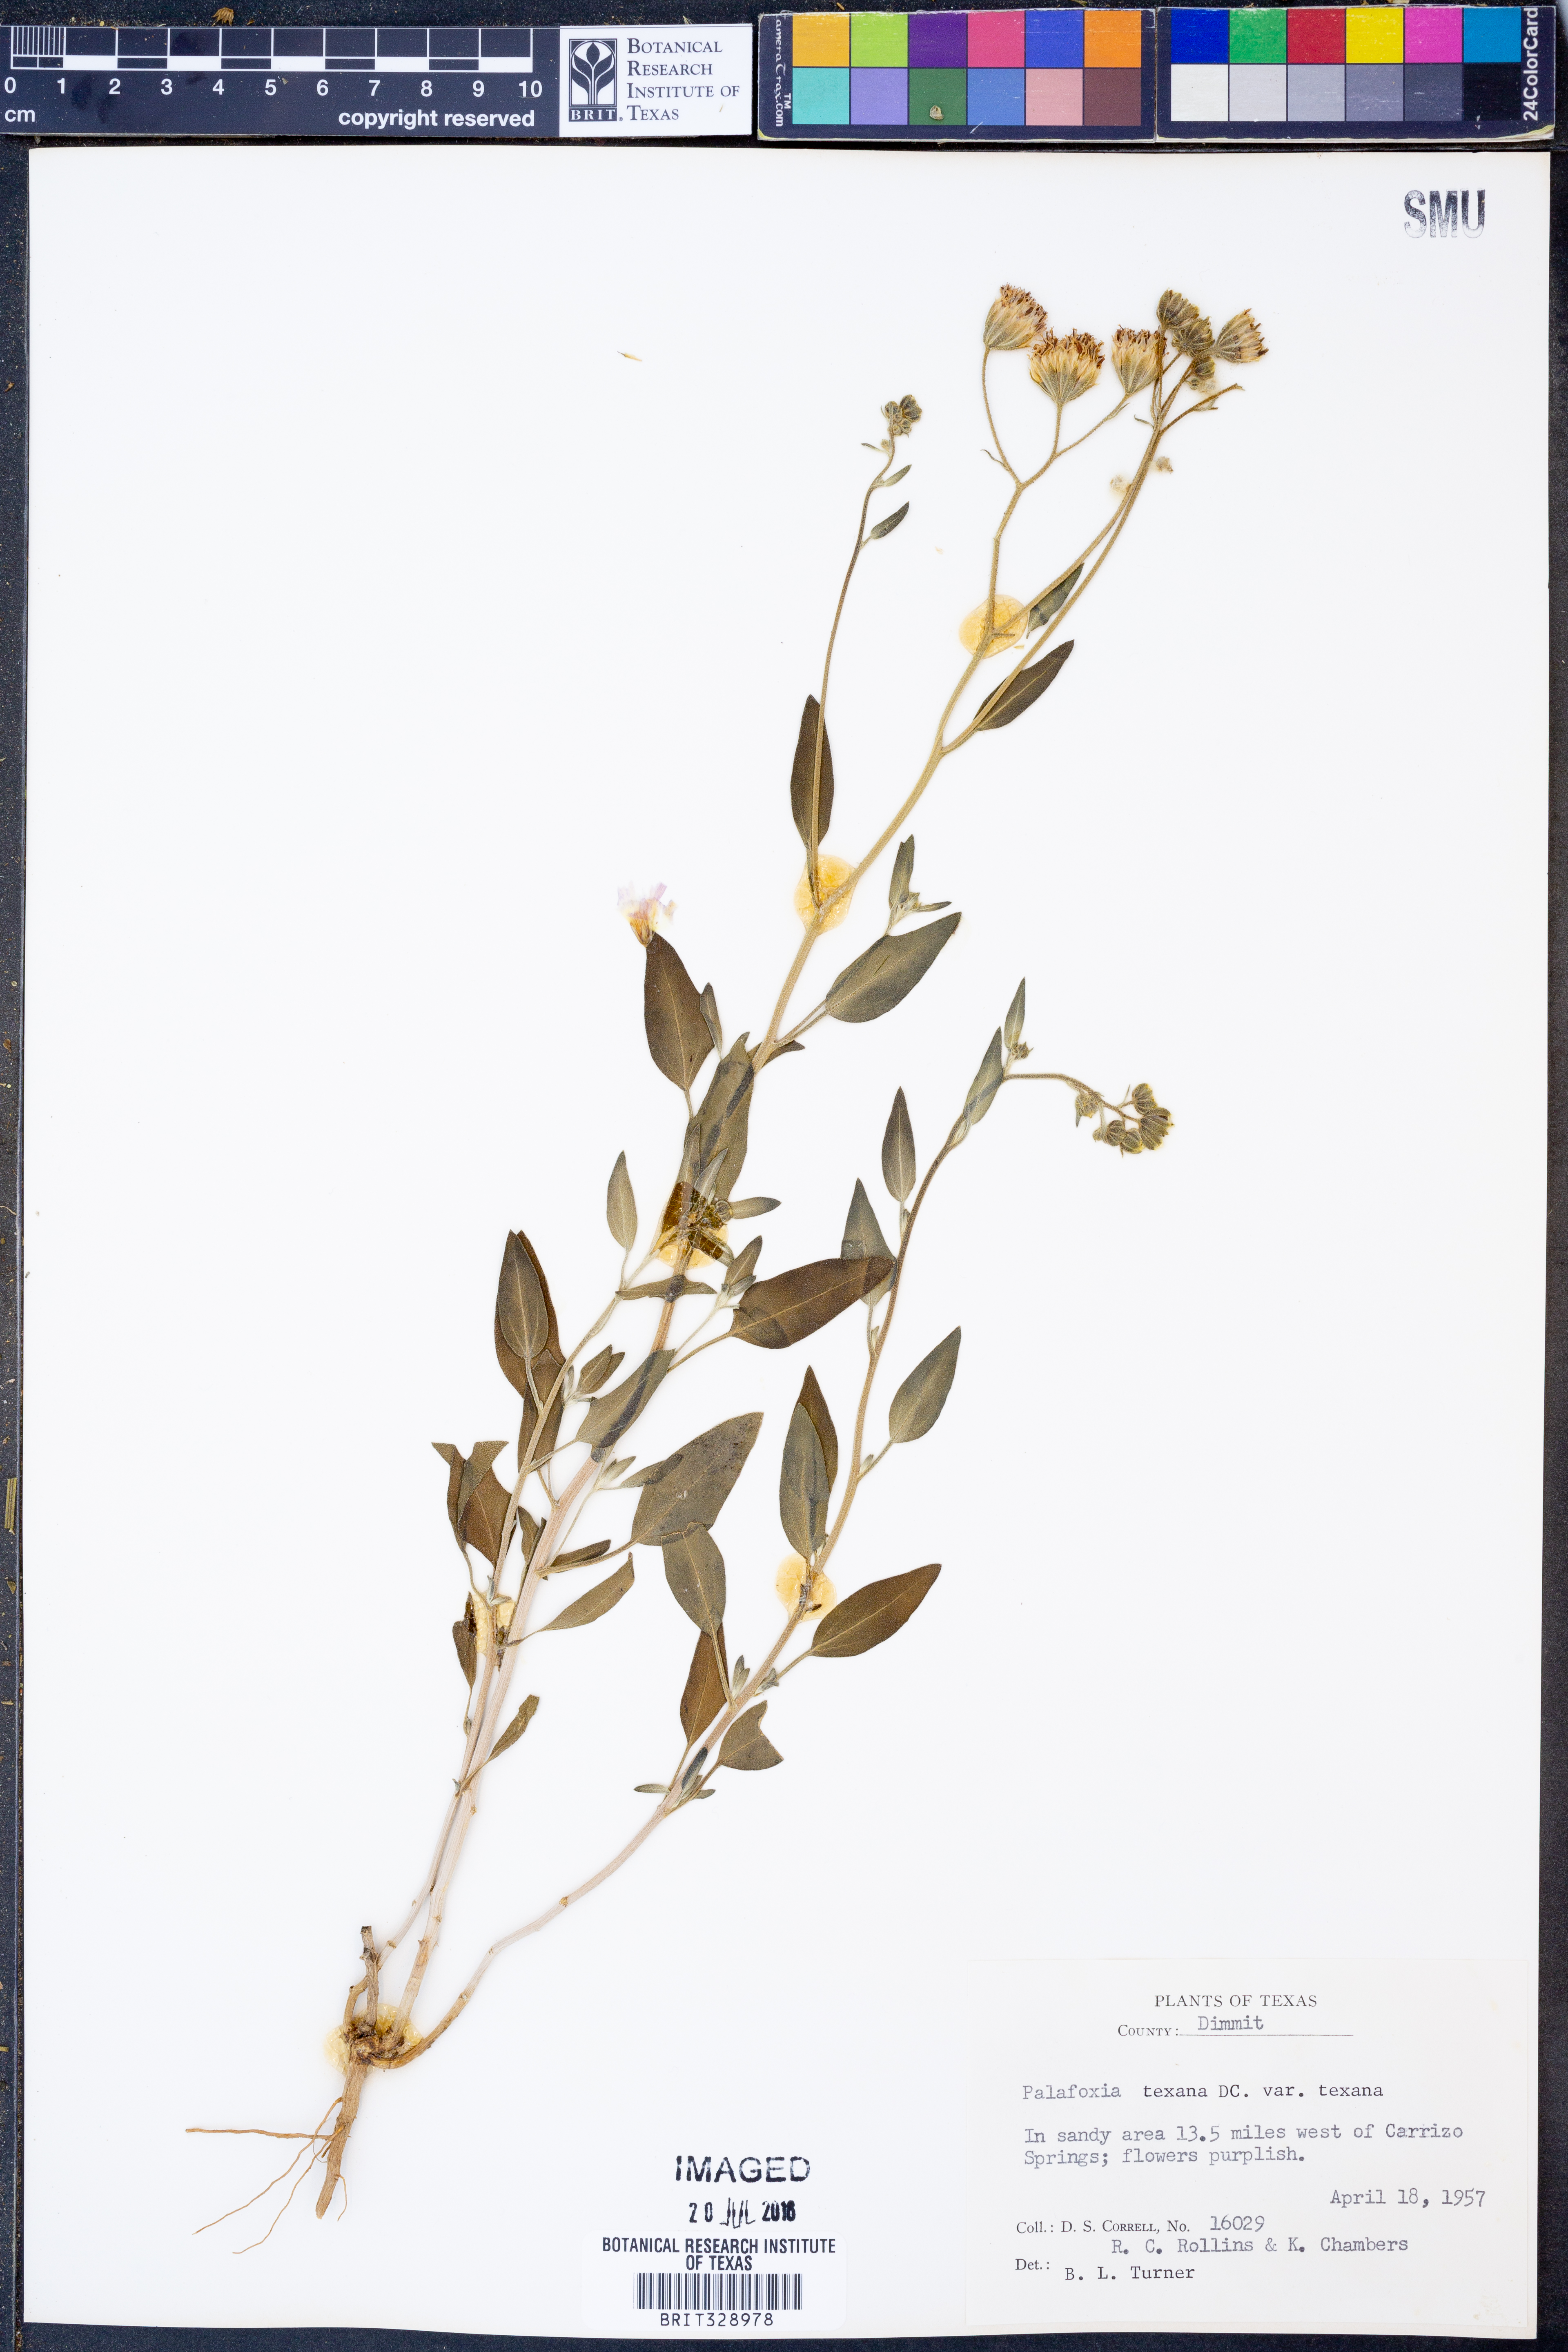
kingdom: Plantae
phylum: Tracheophyta
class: Magnoliopsida
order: Asterales
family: Asteraceae
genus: Palafoxia
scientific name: Palafoxia texana
